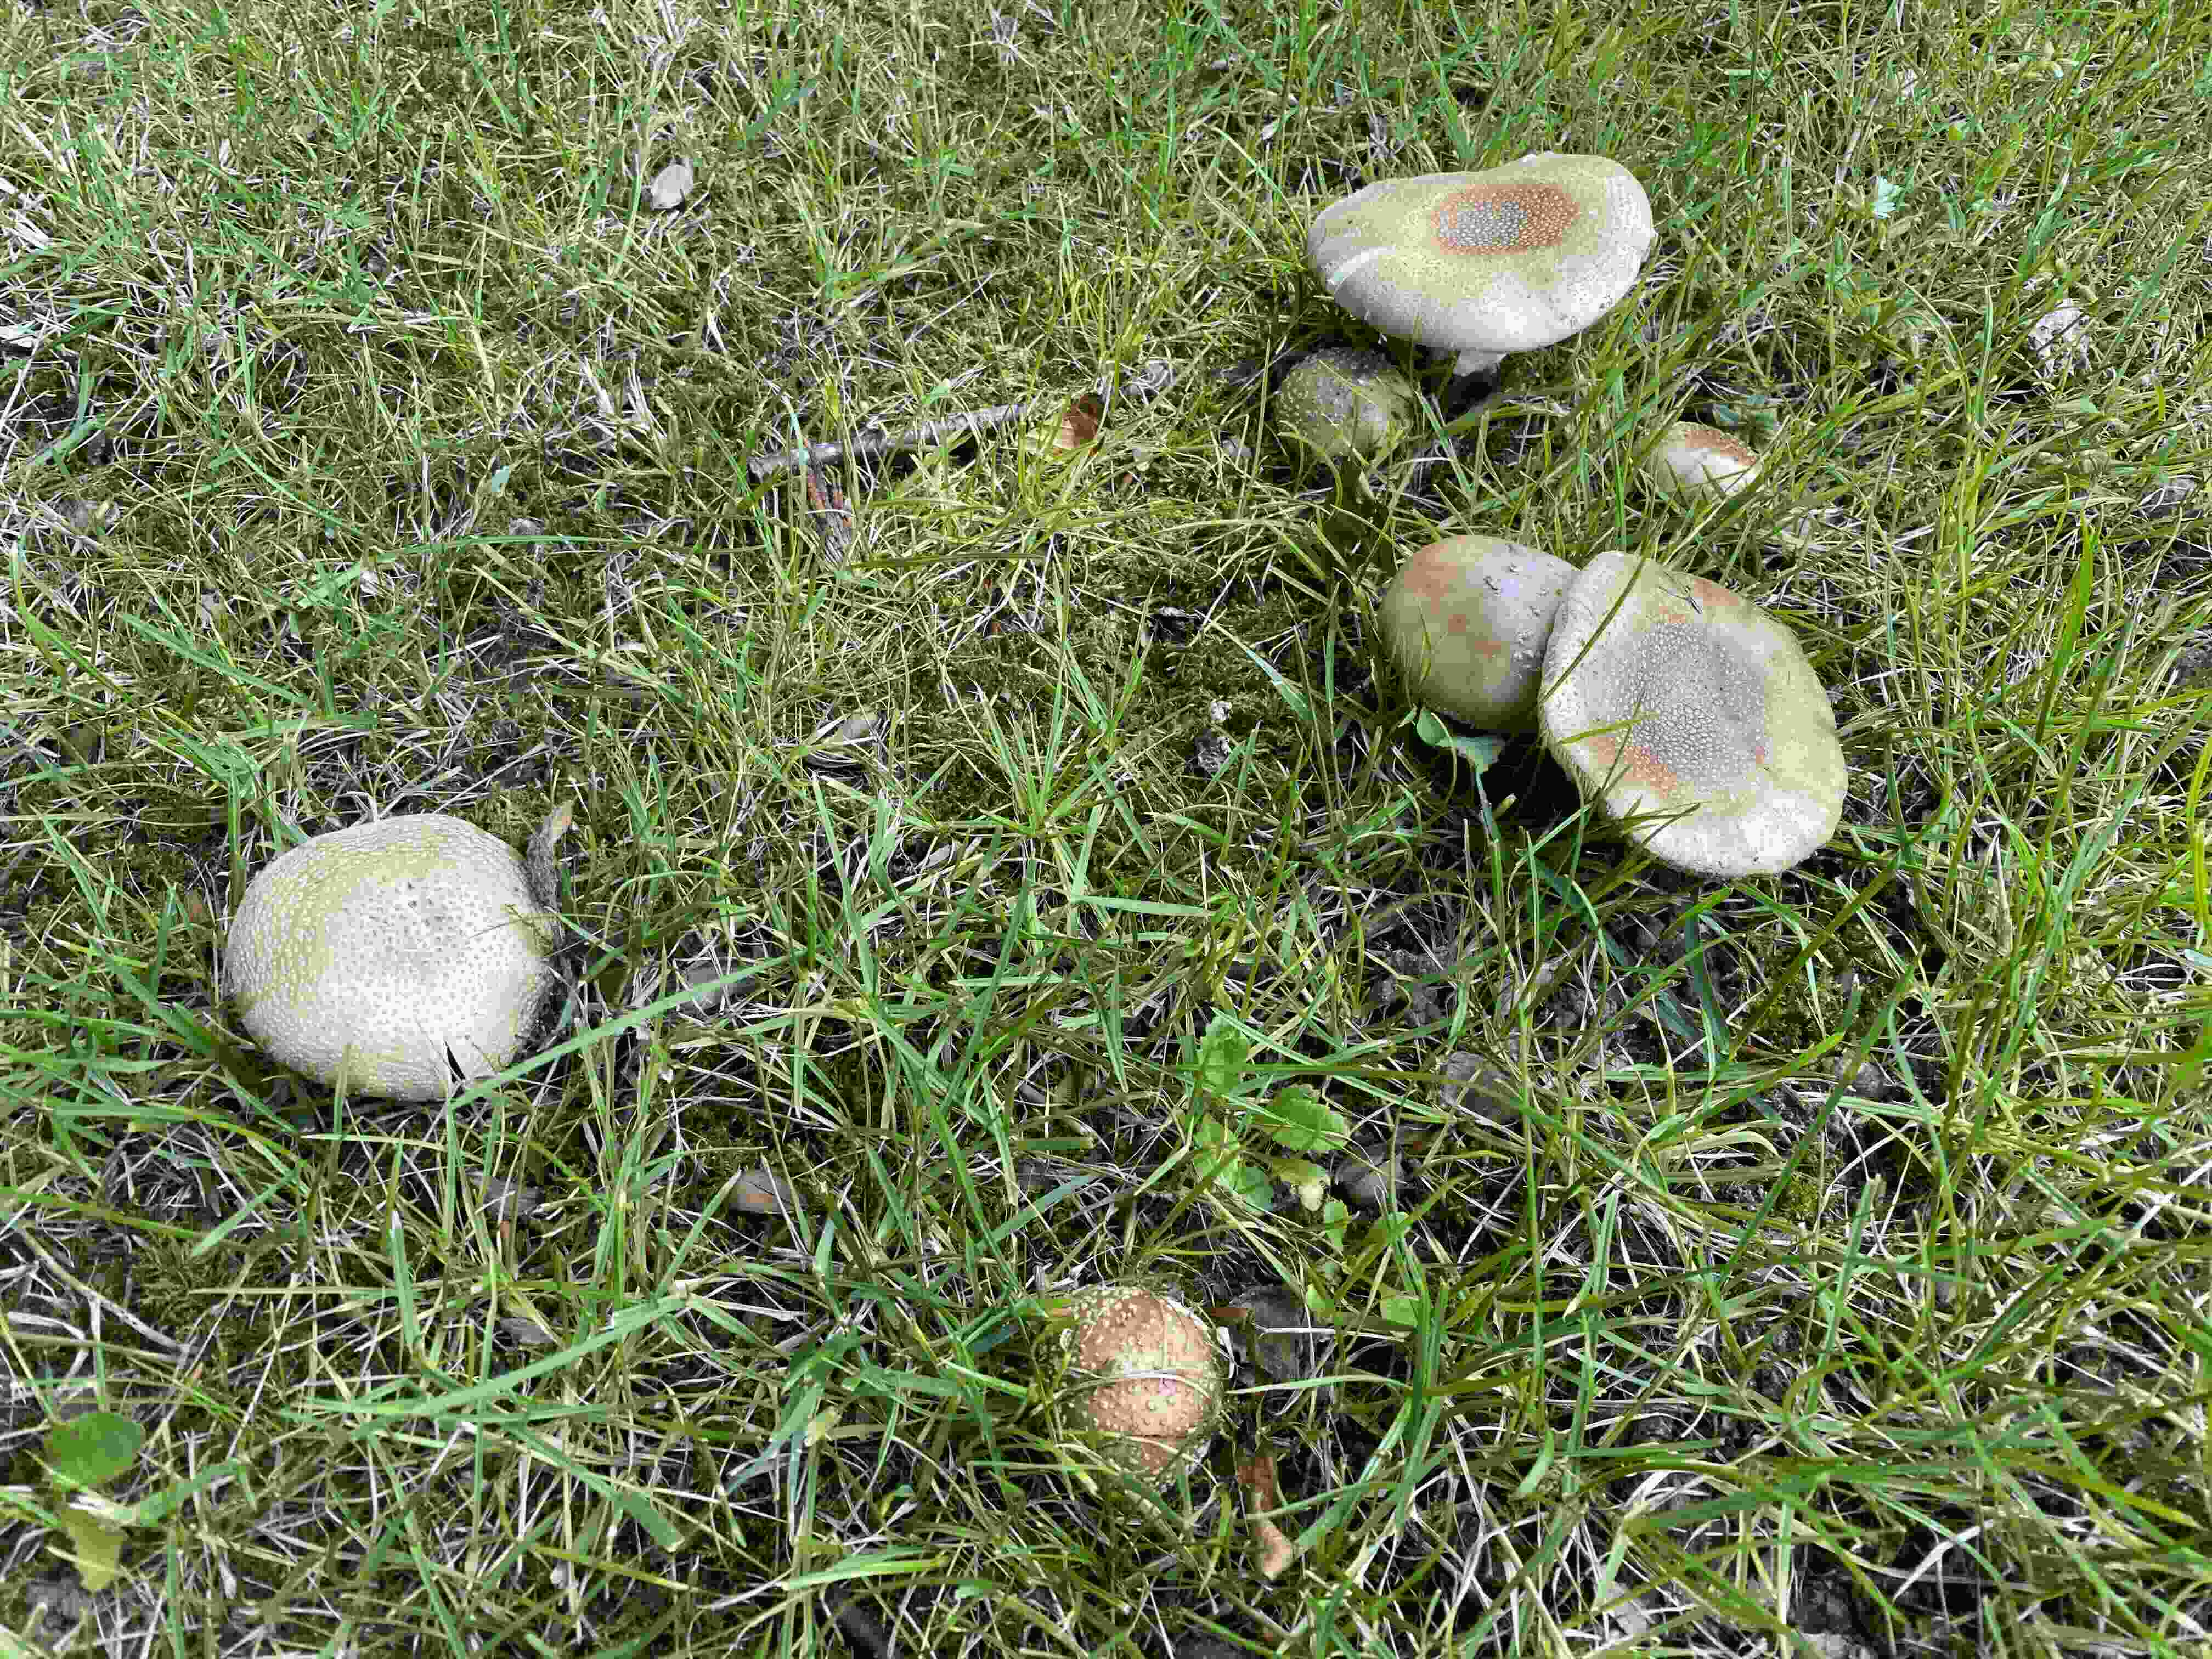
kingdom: Fungi
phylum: Basidiomycota
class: Agaricomycetes
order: Agaricales
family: Amanitaceae
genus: Amanita
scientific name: Amanita rubescens
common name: rødmende fluesvamp
